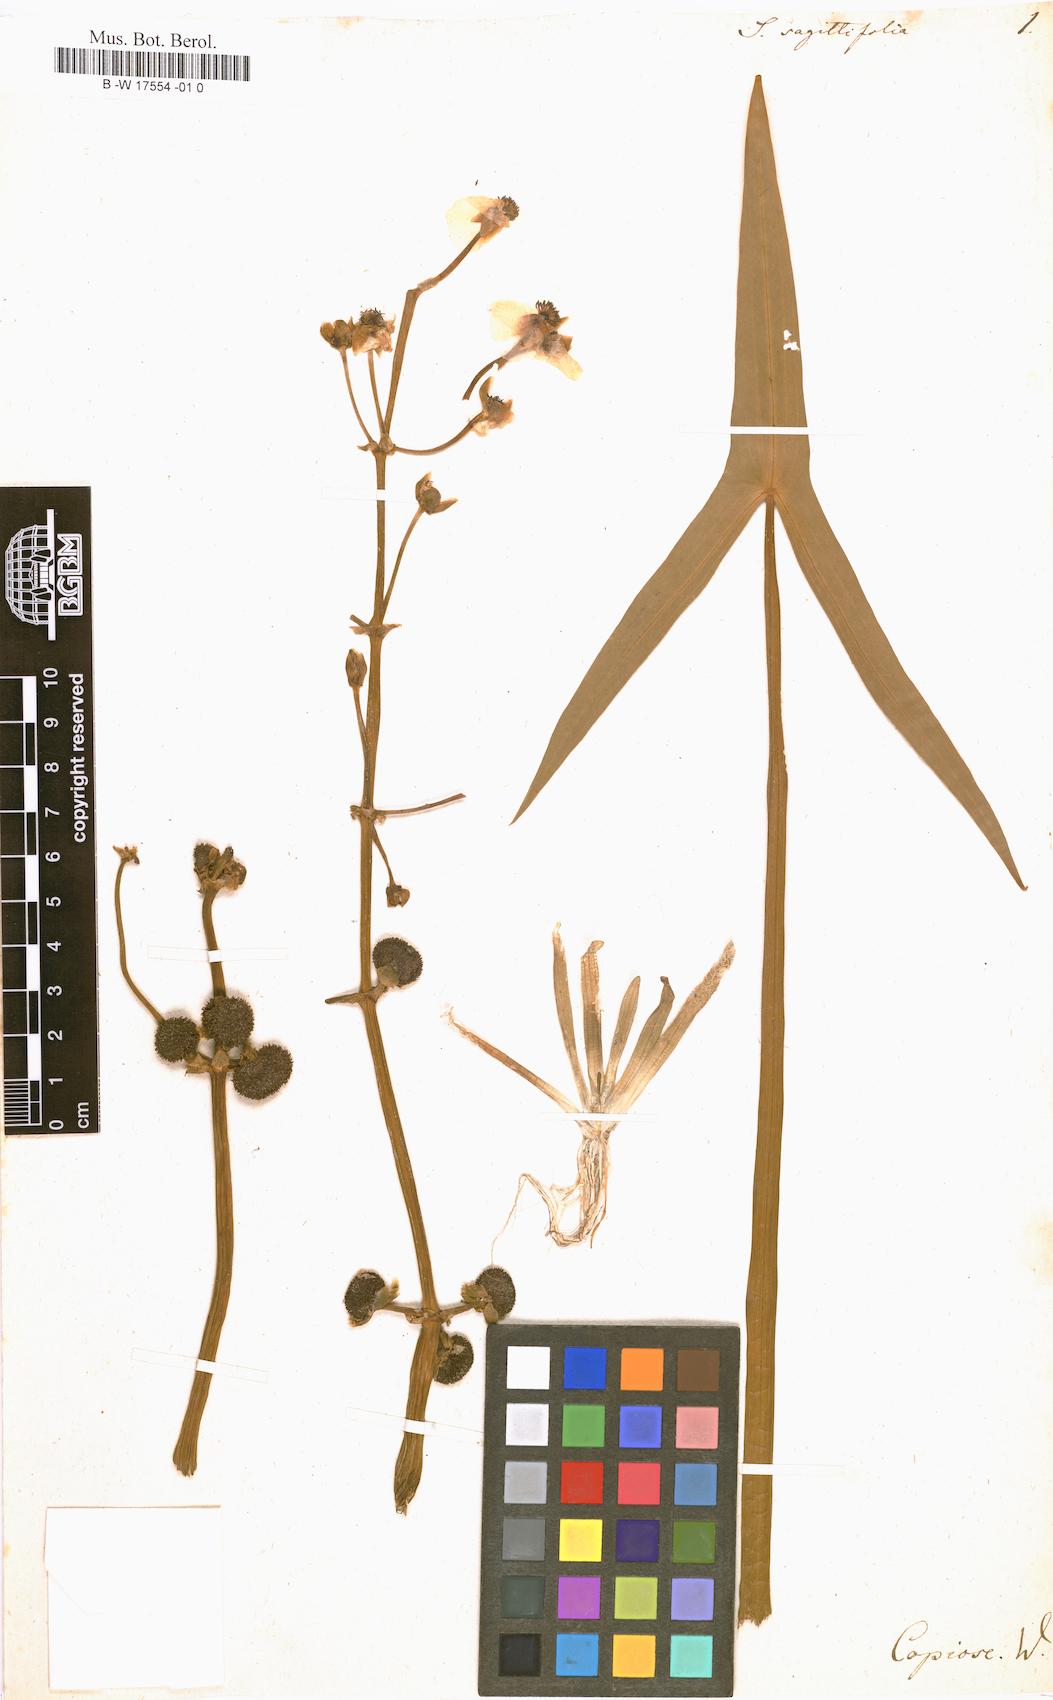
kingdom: Plantae
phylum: Tracheophyta
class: Liliopsida
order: Alismatales
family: Alismataceae
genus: Sagittaria
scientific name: Sagittaria sagittifolia
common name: Arrowhead
